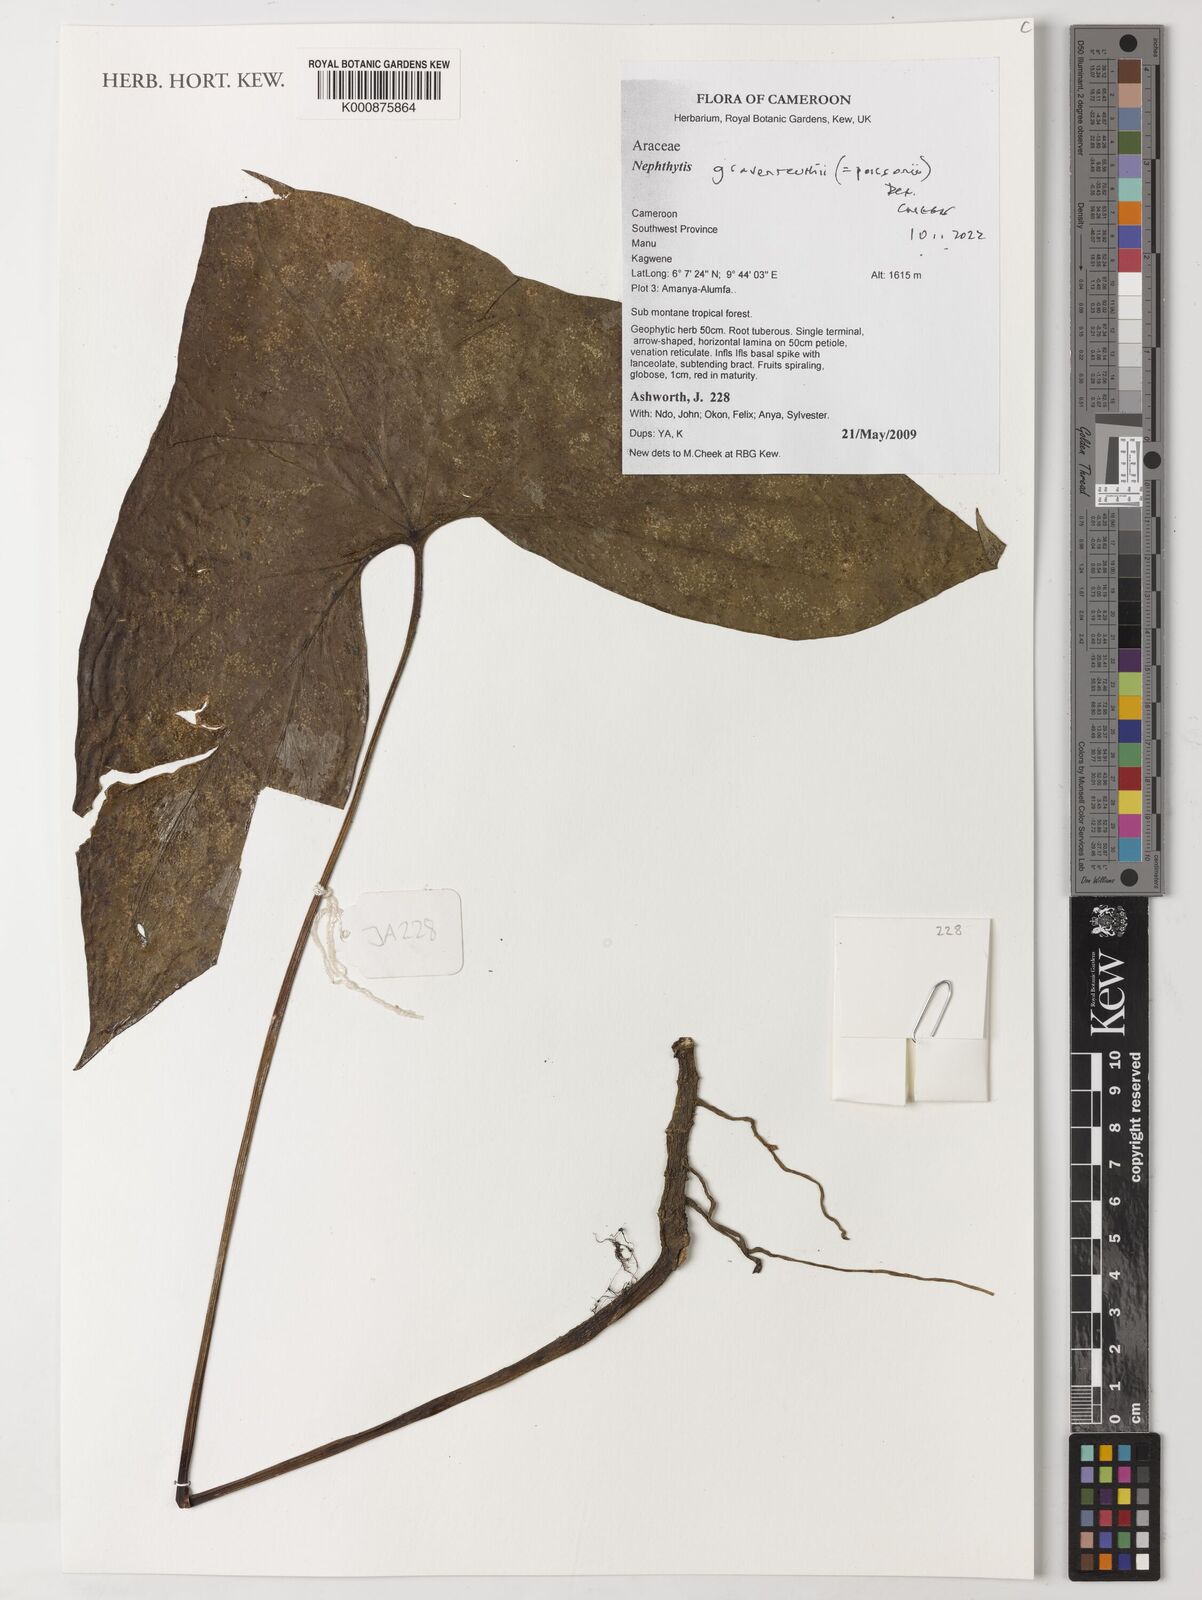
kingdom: Plantae
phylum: Tracheophyta
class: Liliopsida
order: Alismatales
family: Araceae
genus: Nephthytis
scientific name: Nephthytis poissonii
